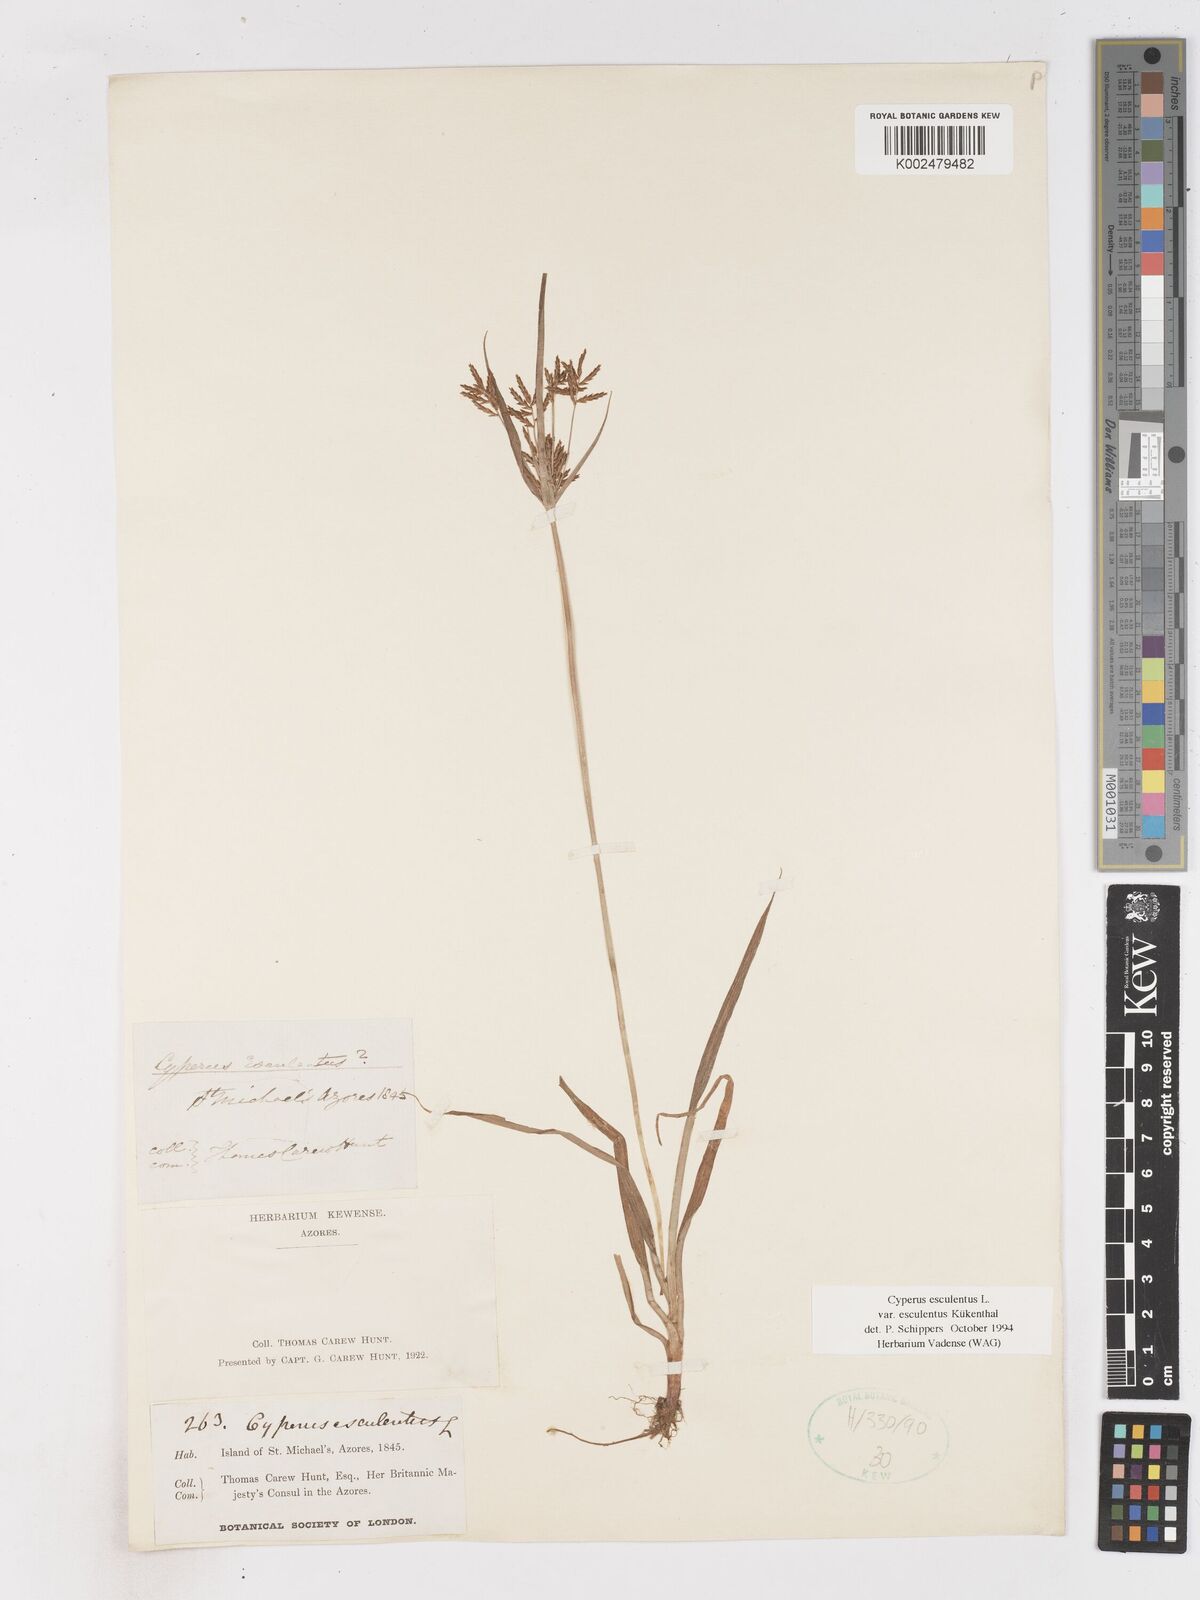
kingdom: Plantae
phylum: Tracheophyta
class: Liliopsida
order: Poales
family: Cyperaceae
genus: Cyperus
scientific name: Cyperus esculentus
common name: Yellow nutsedge
